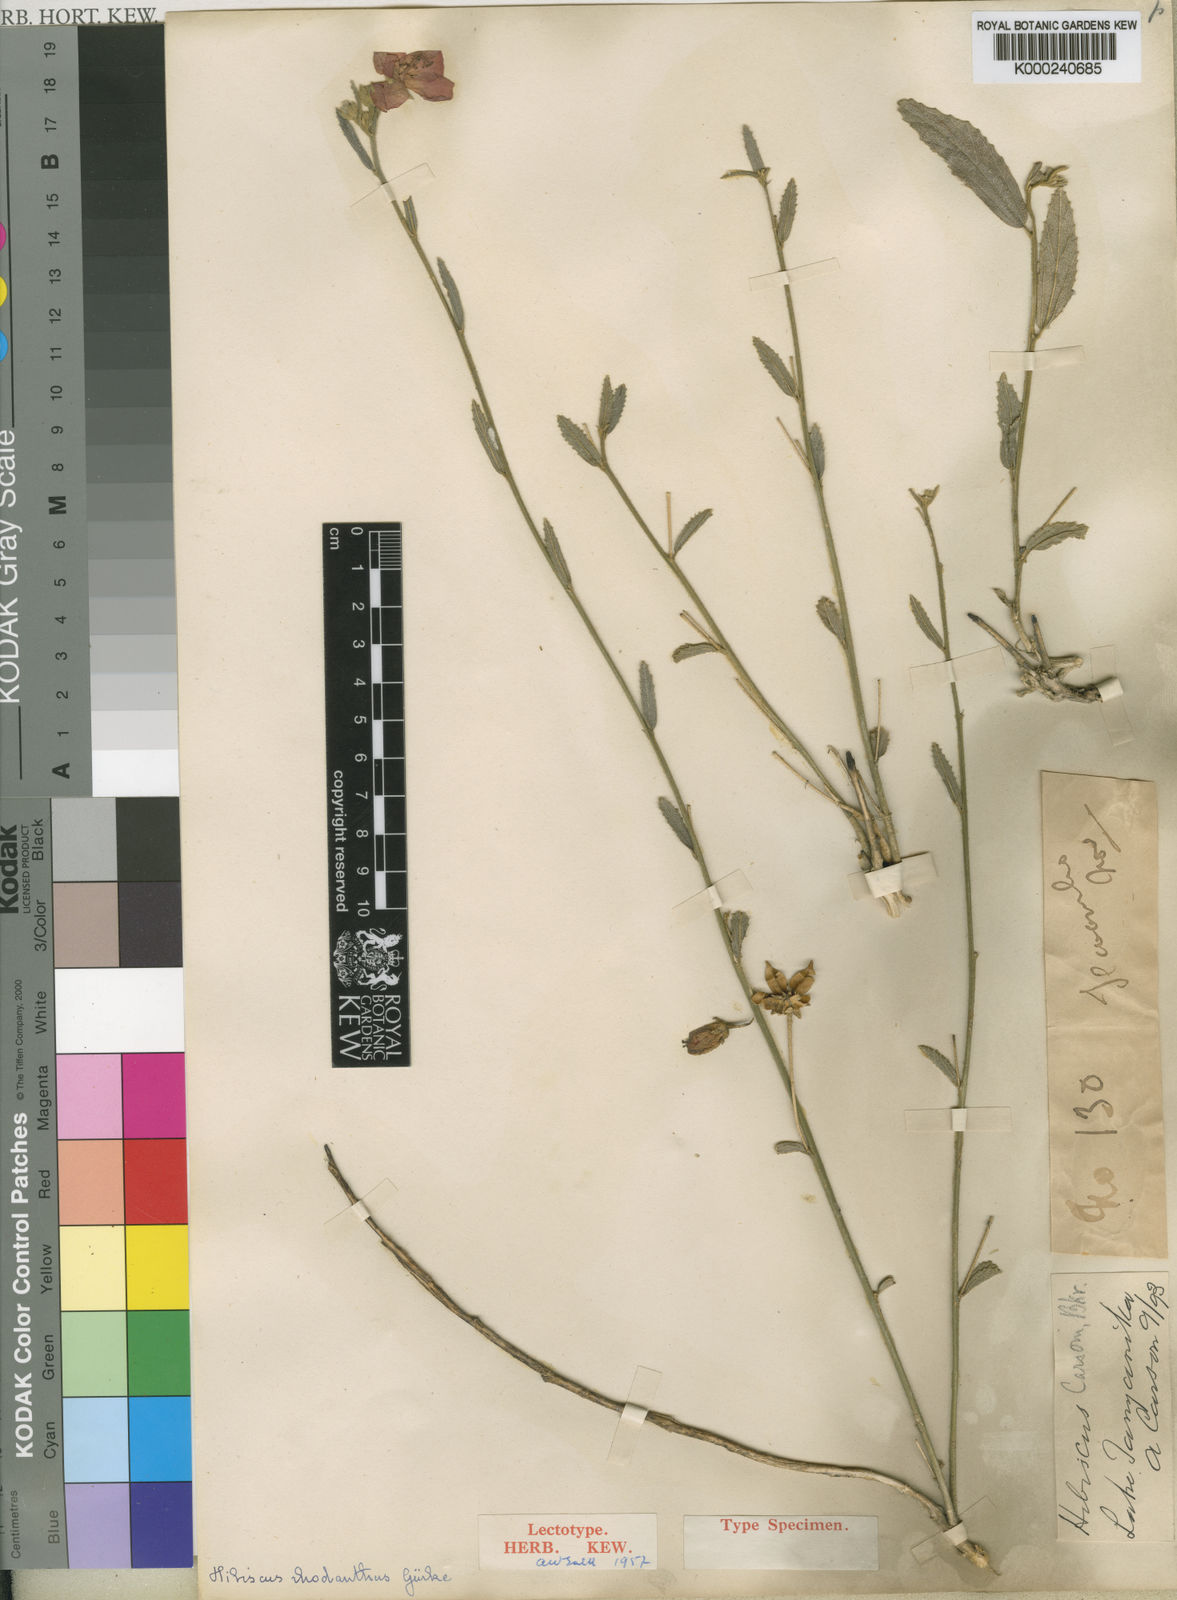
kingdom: Plantae
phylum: Tracheophyta
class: Magnoliopsida
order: Malvales
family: Malvaceae
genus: Hibiscus
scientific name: Hibiscus
